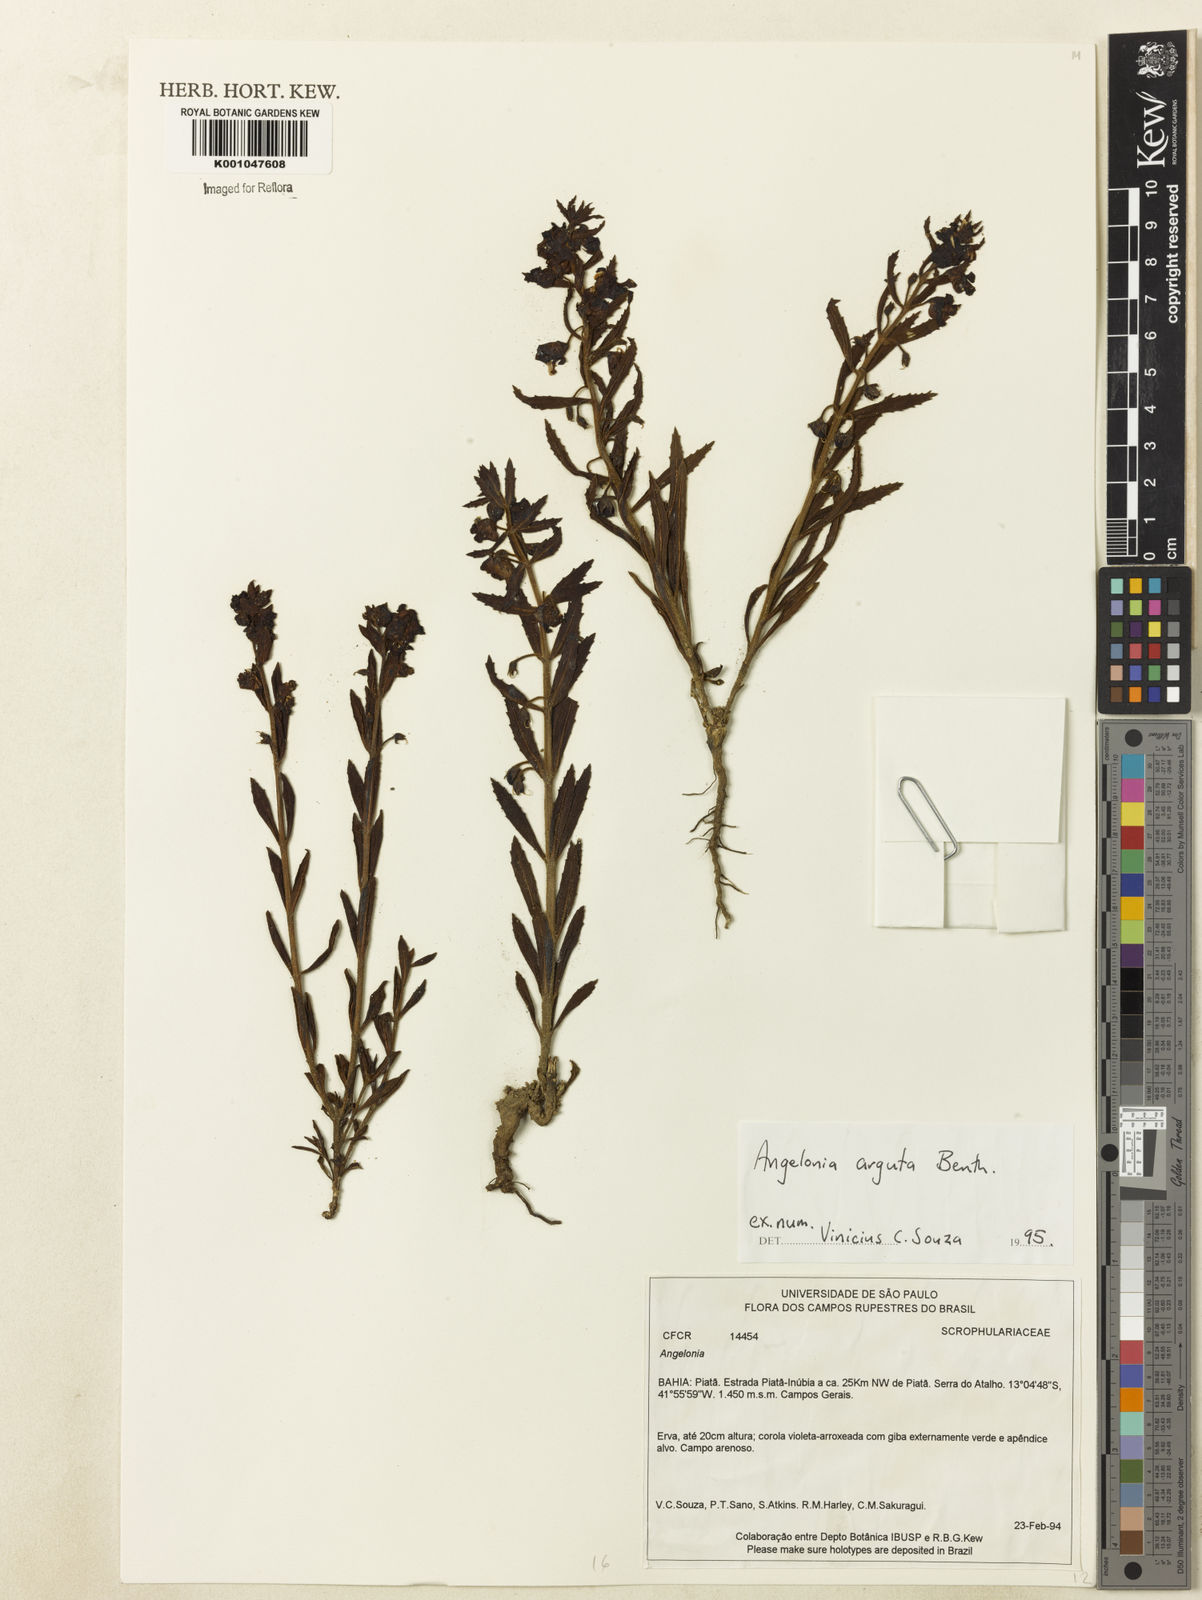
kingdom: Plantae
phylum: Tracheophyta
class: Magnoliopsida
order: Lamiales
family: Plantaginaceae
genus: Angelonia
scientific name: Angelonia arguta
